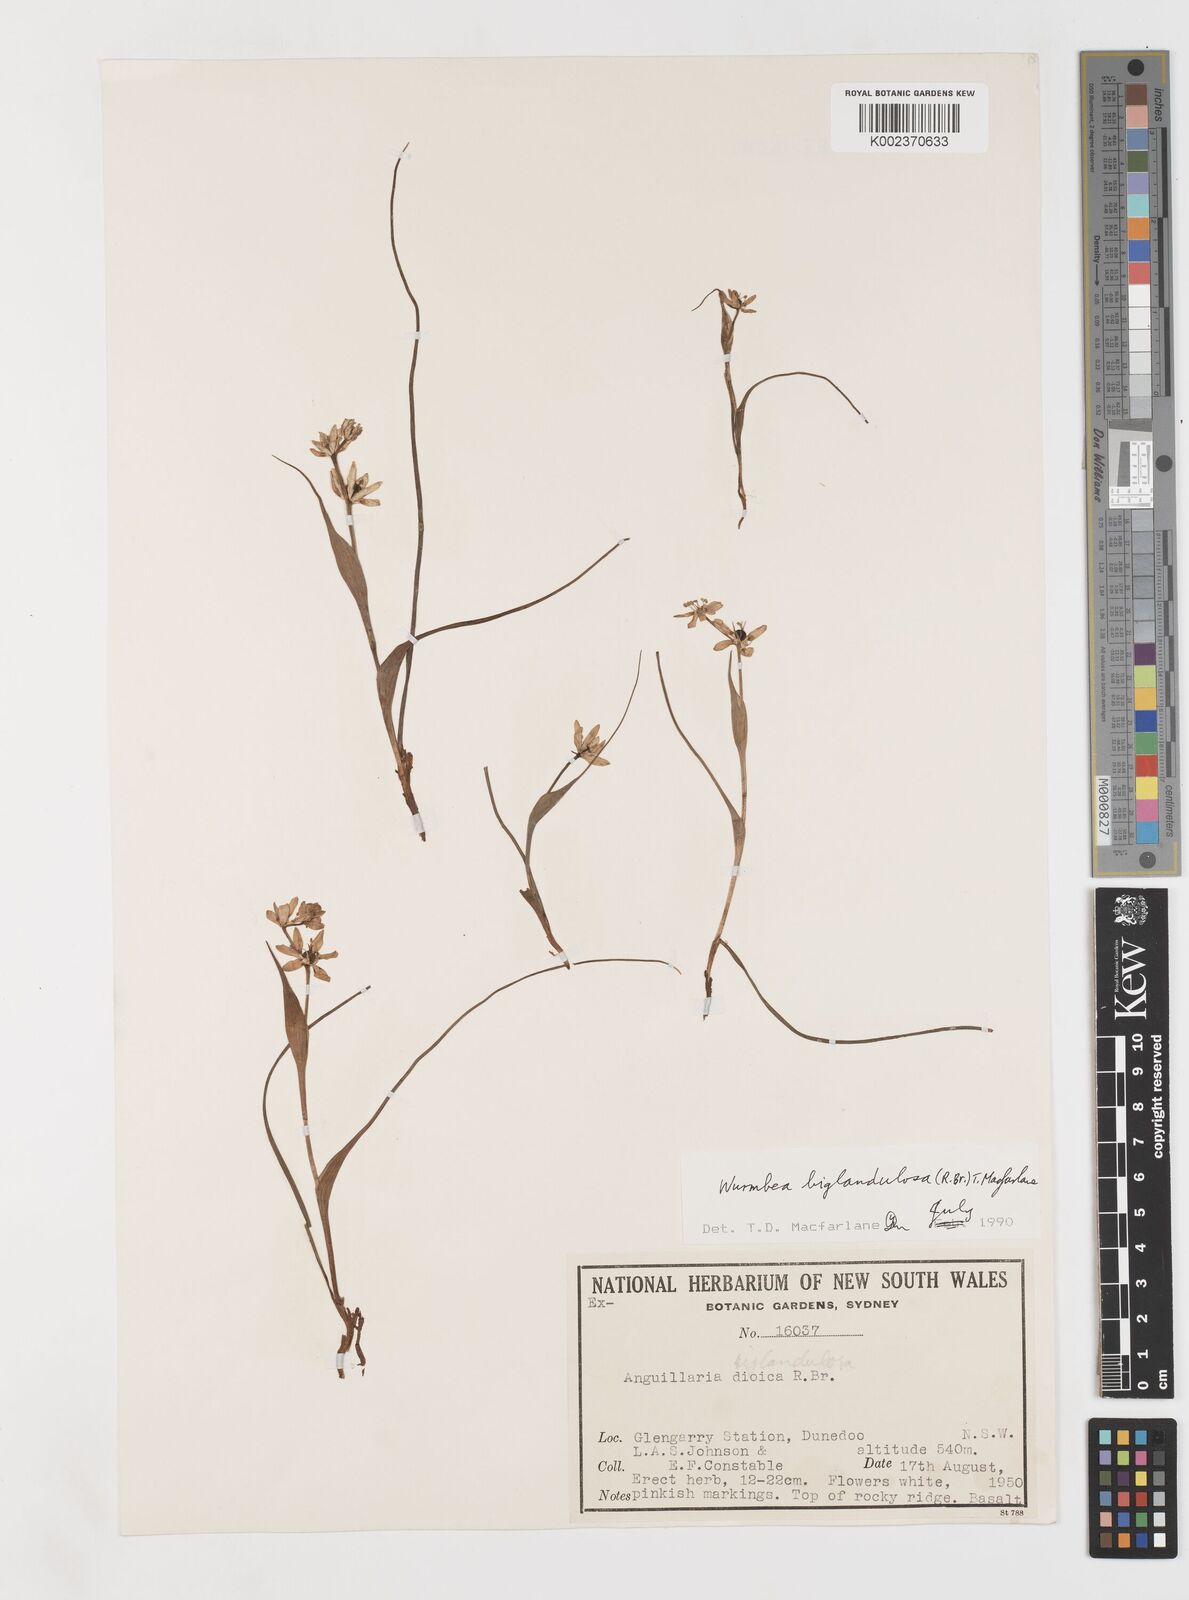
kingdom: Plantae
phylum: Tracheophyta
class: Liliopsida
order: Liliales
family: Colchicaceae
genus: Wurmbea
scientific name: Wurmbea biglandulosa
